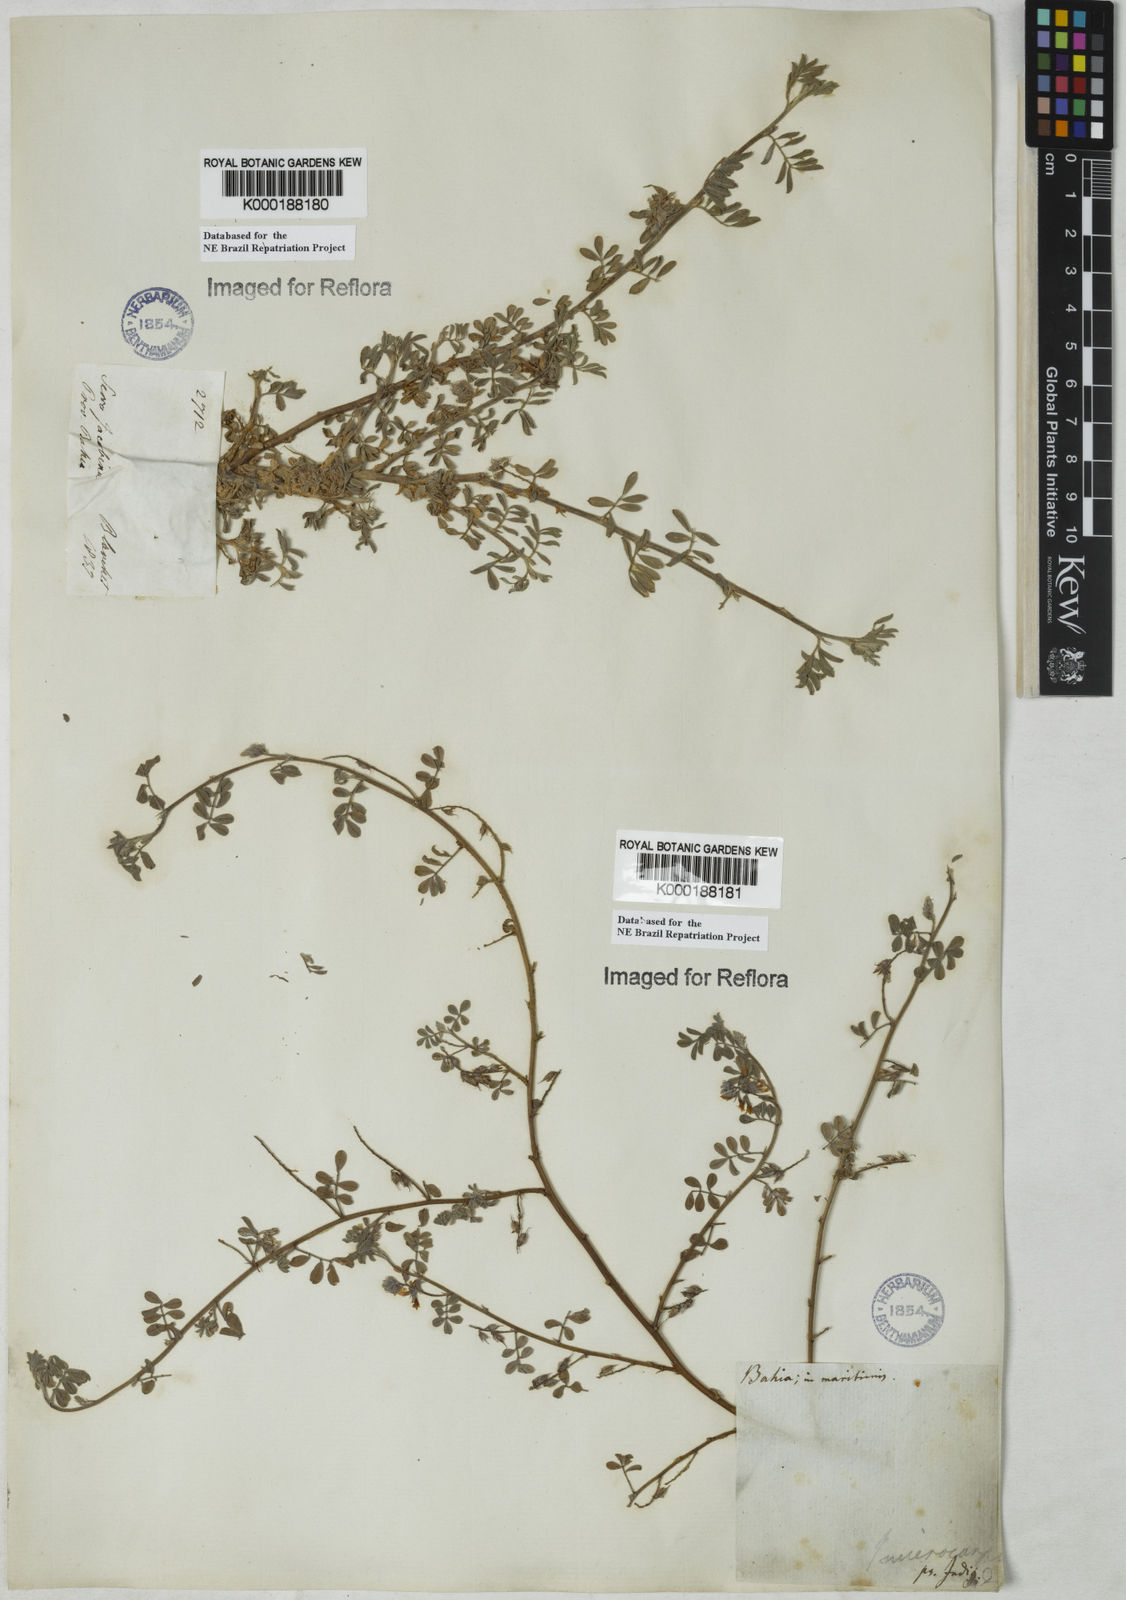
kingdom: Plantae
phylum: Tracheophyta
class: Magnoliopsida
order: Fabales
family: Fabaceae
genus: Indigofera
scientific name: Indigofera microcarpa
